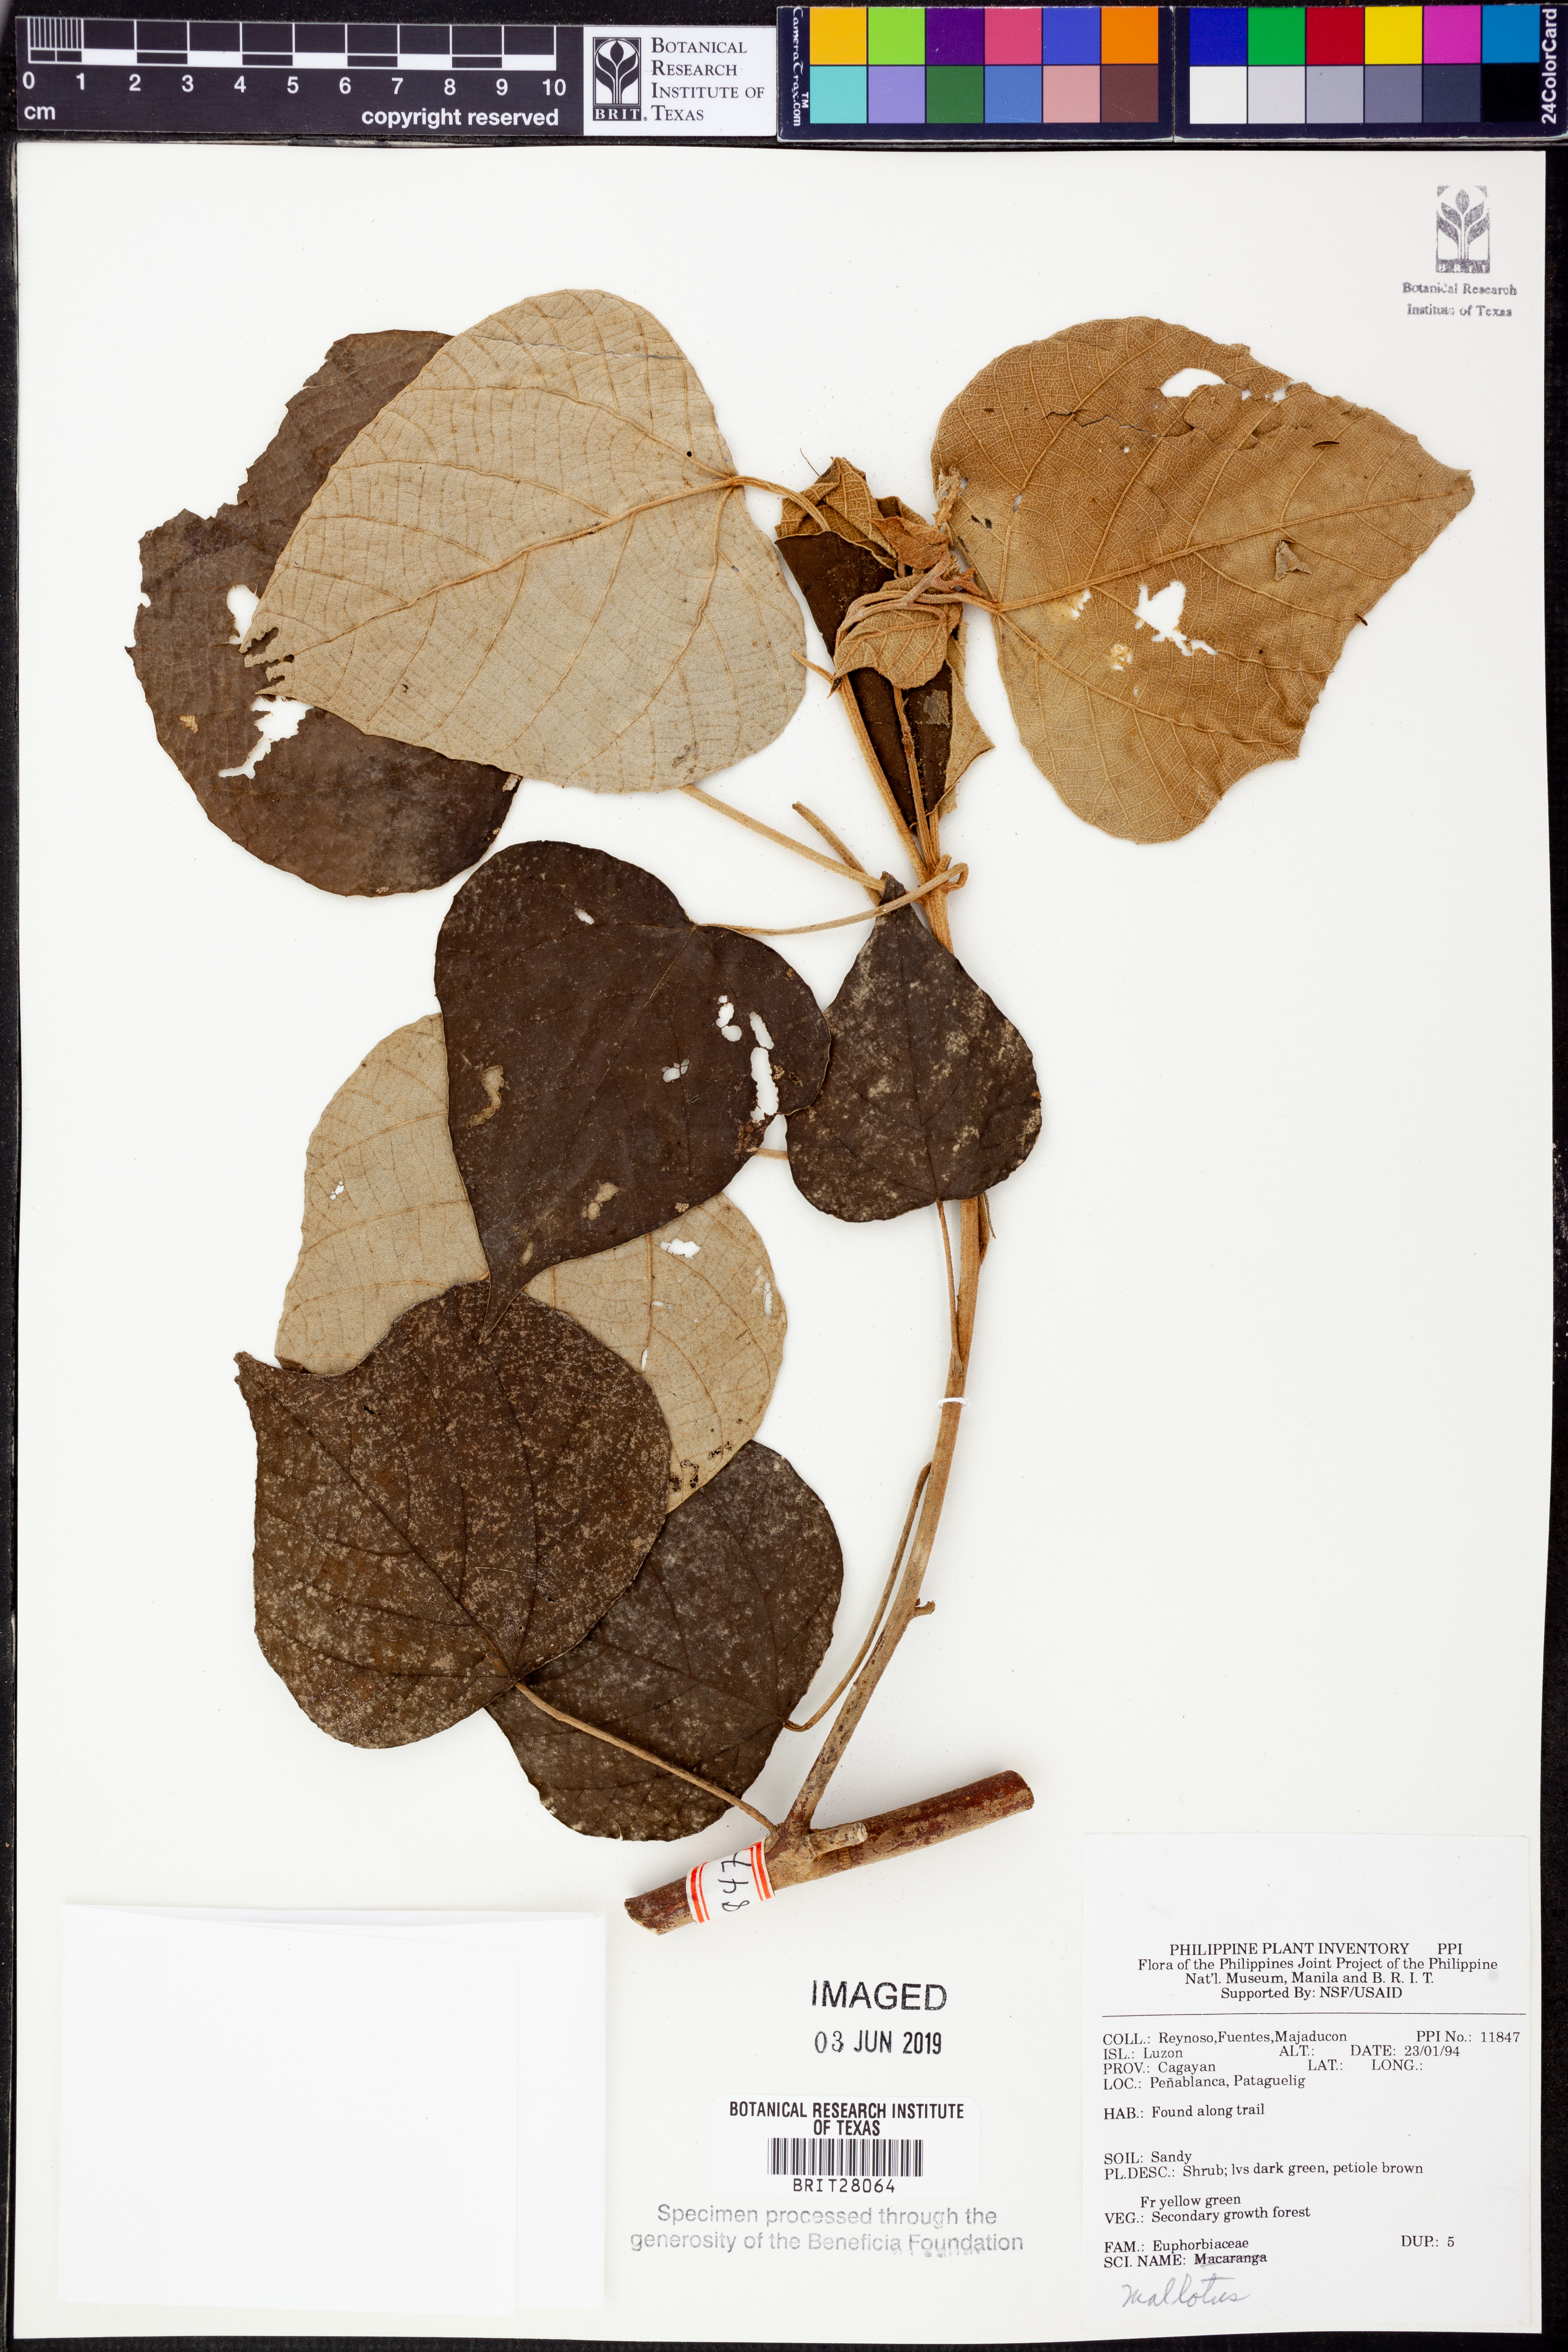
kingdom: Plantae
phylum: Tracheophyta
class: Magnoliopsida
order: Boraginales
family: Heliotropiaceae
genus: Tournefortia
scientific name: Tournefortia
